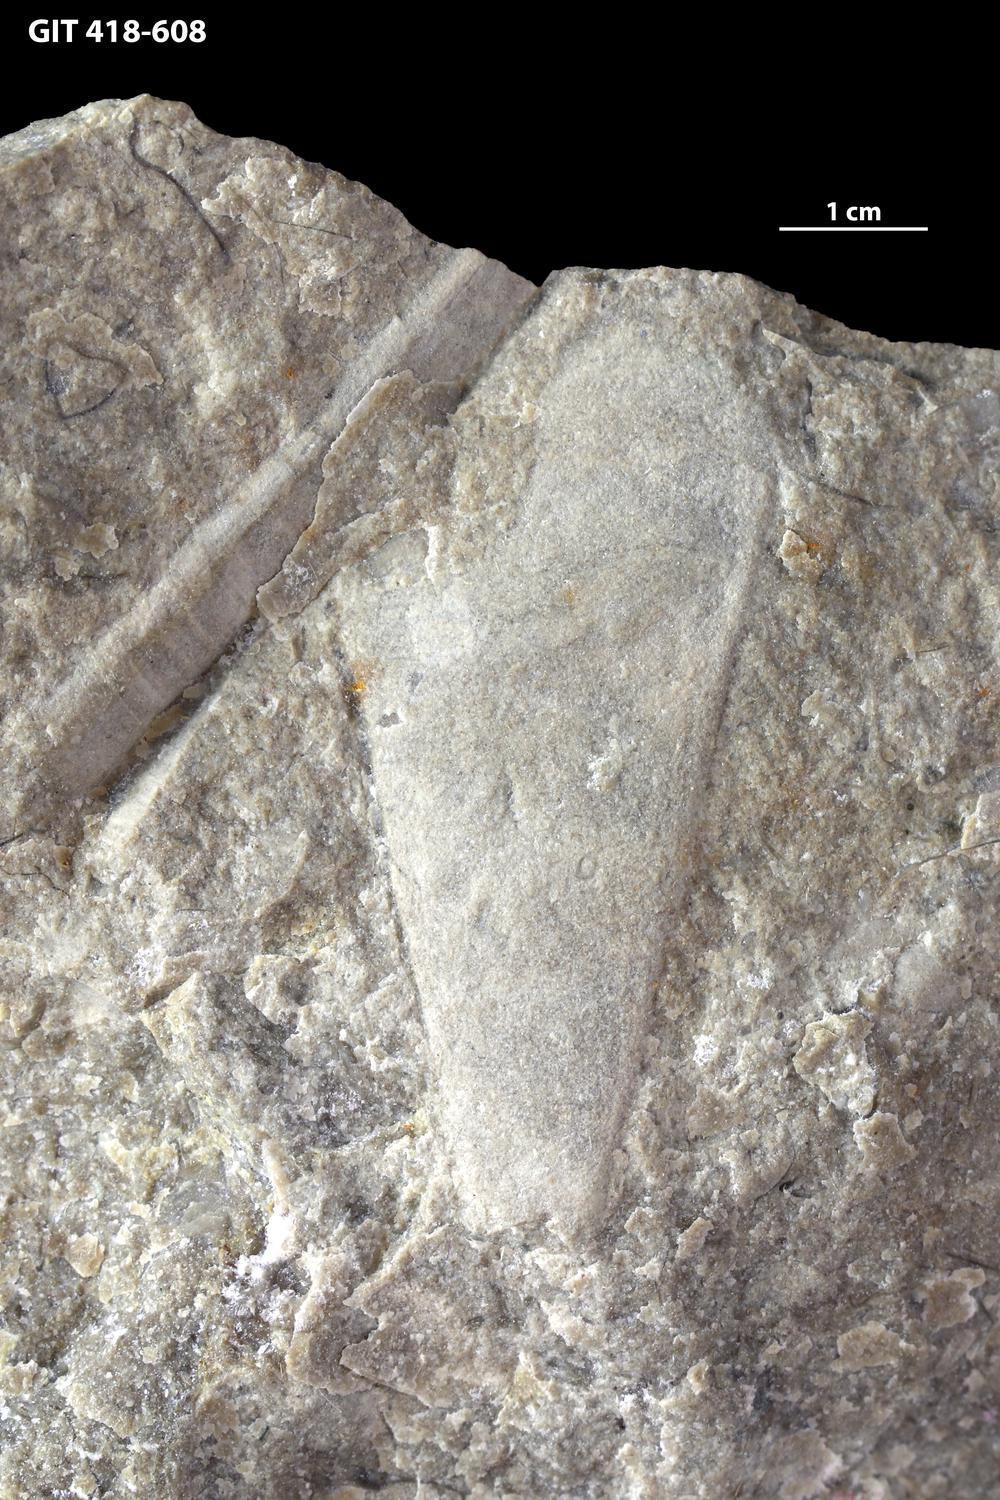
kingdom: Animalia
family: Hyolithidae
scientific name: Hyolithidae
